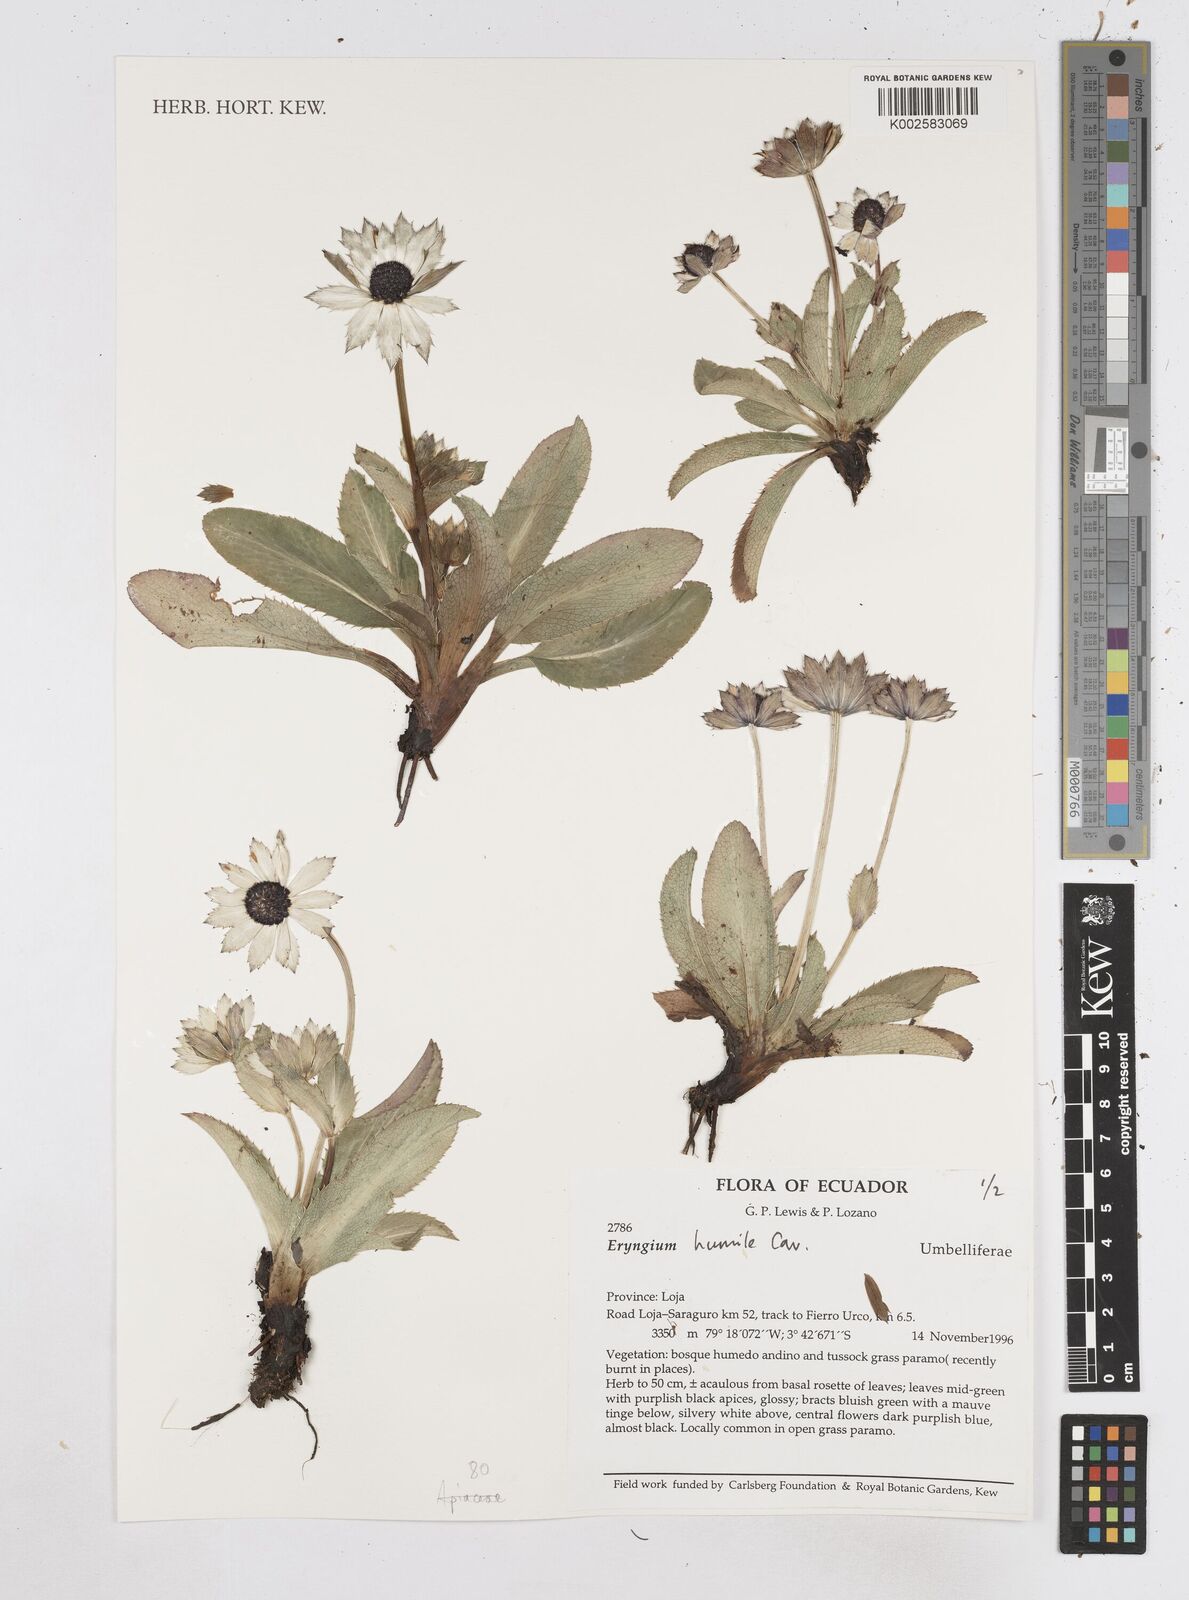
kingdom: Plantae
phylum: Tracheophyta
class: Magnoliopsida
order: Apiales
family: Apiaceae
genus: Eryngium
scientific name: Eryngium humile
